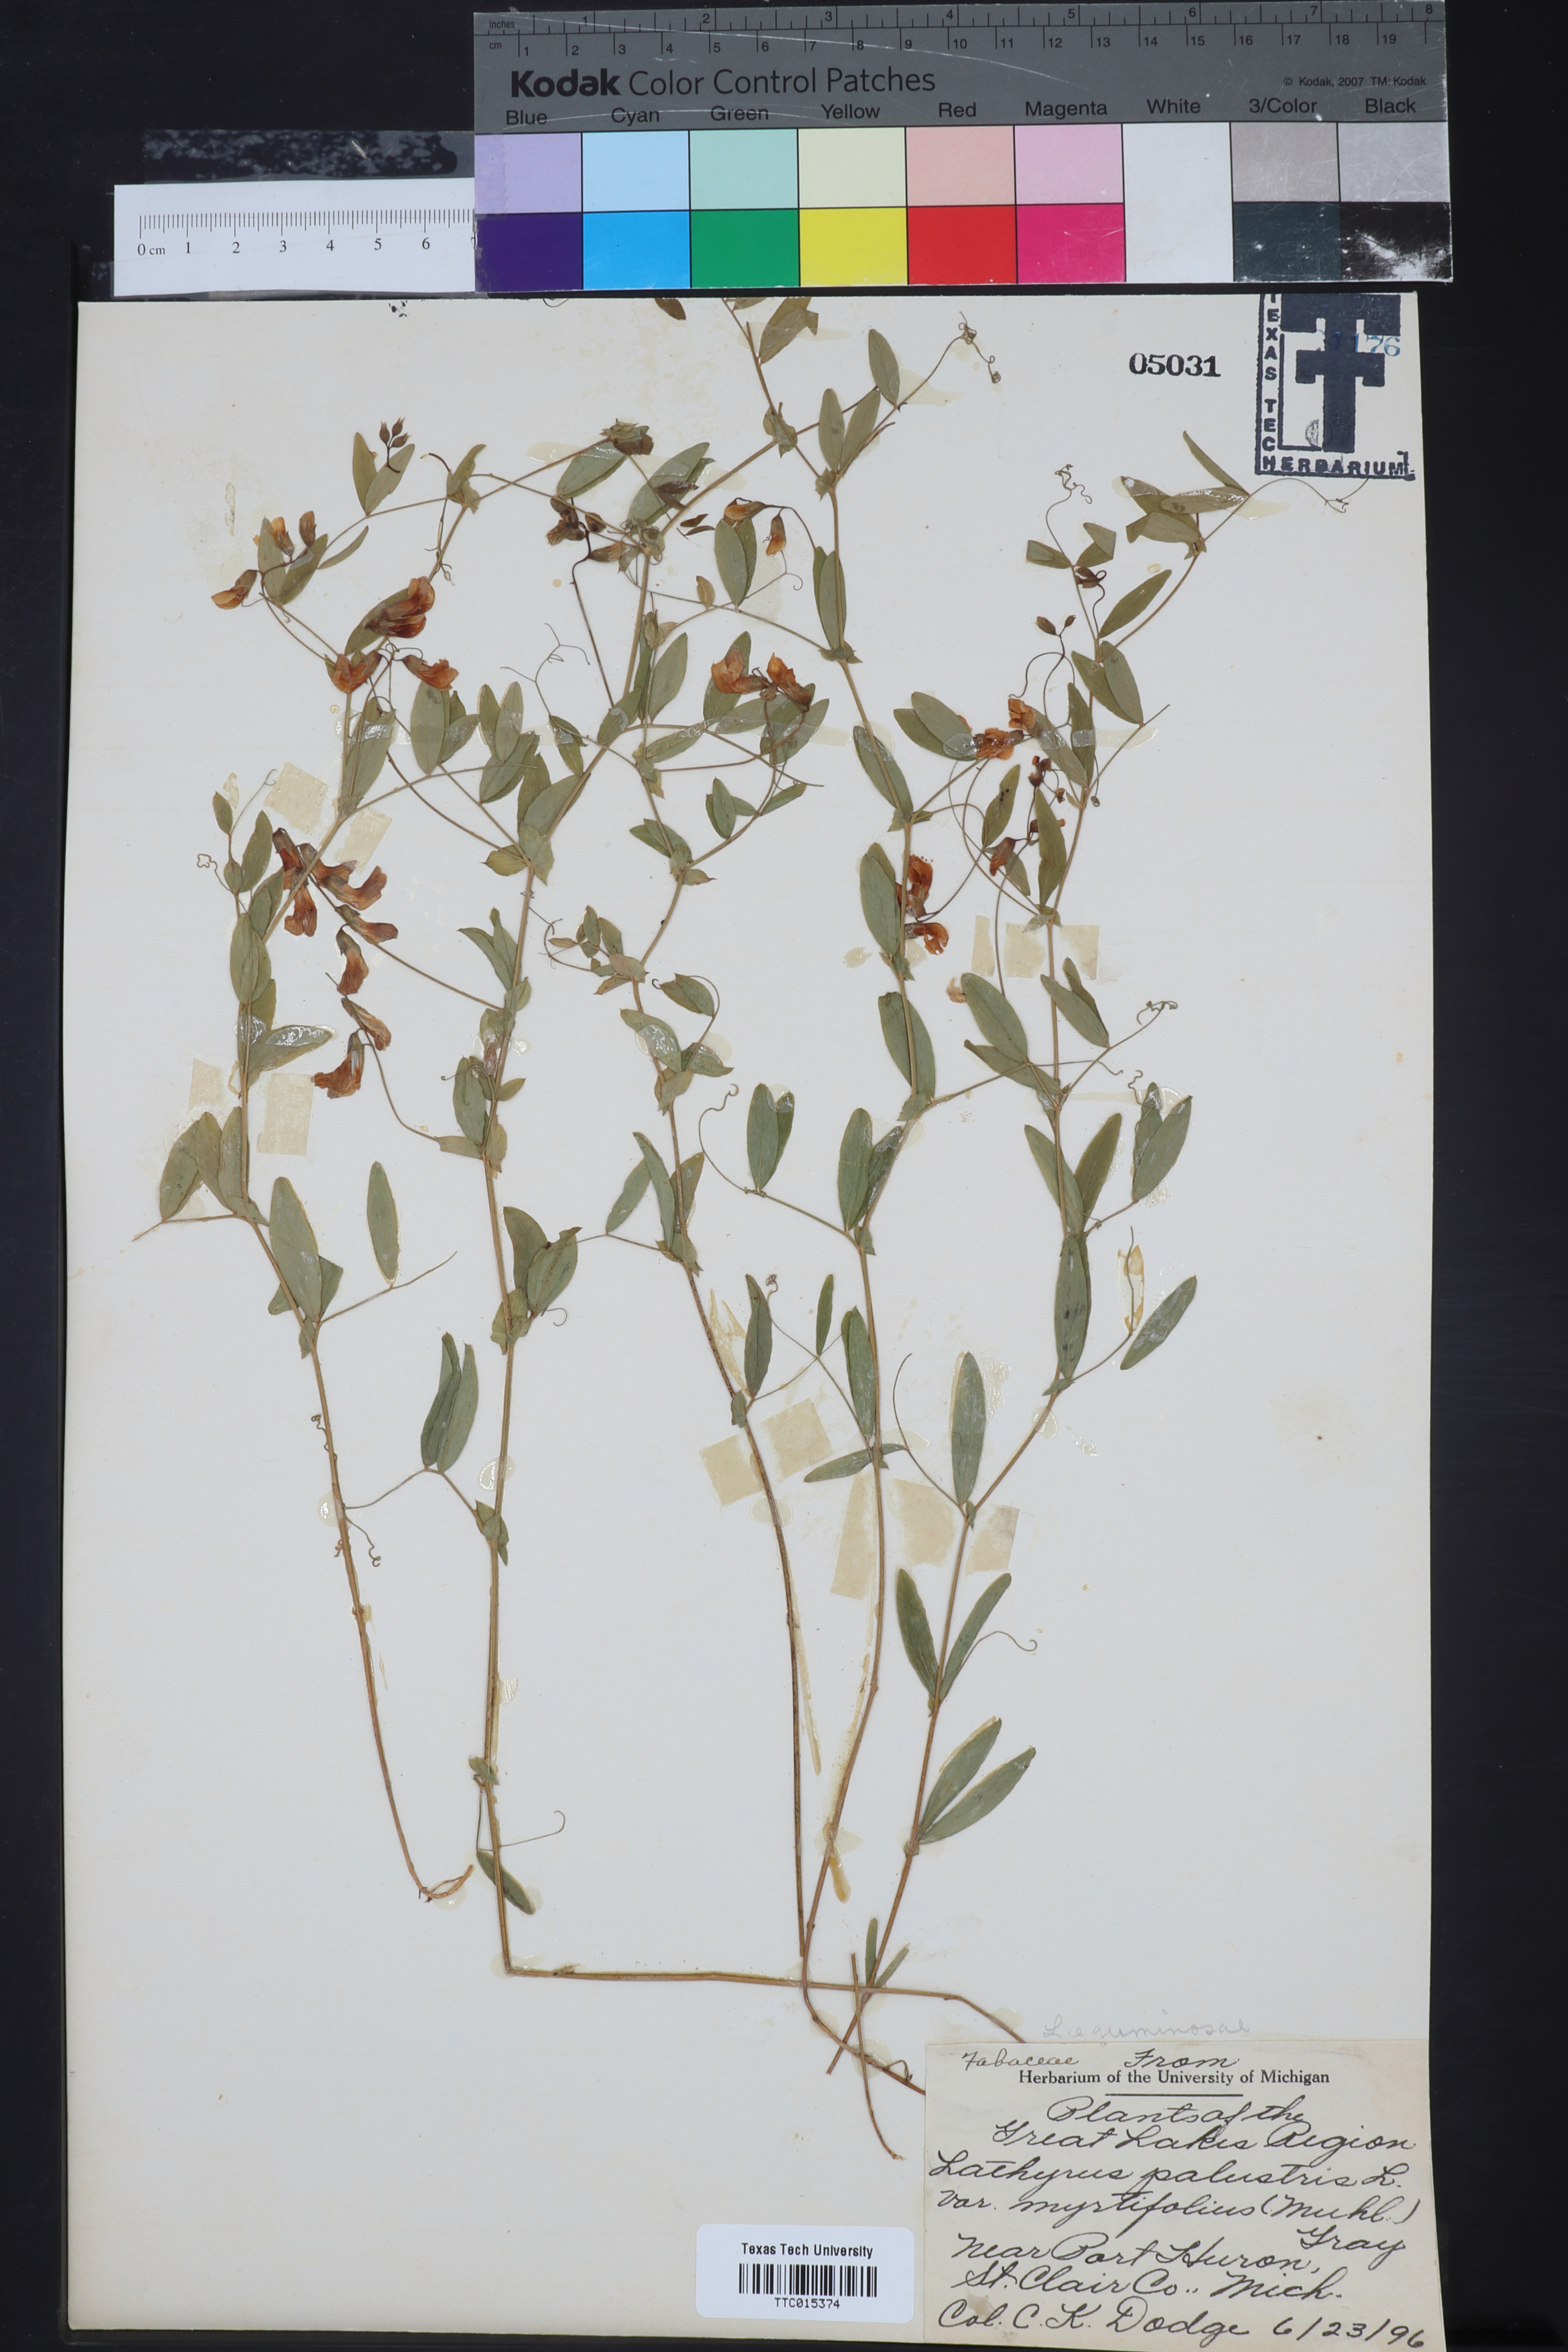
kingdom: Plantae
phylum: Tracheophyta
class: Magnoliopsida
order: Fabales
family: Fabaceae
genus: Lathyrus
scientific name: Lathyrus palustris
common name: Marsh pea
